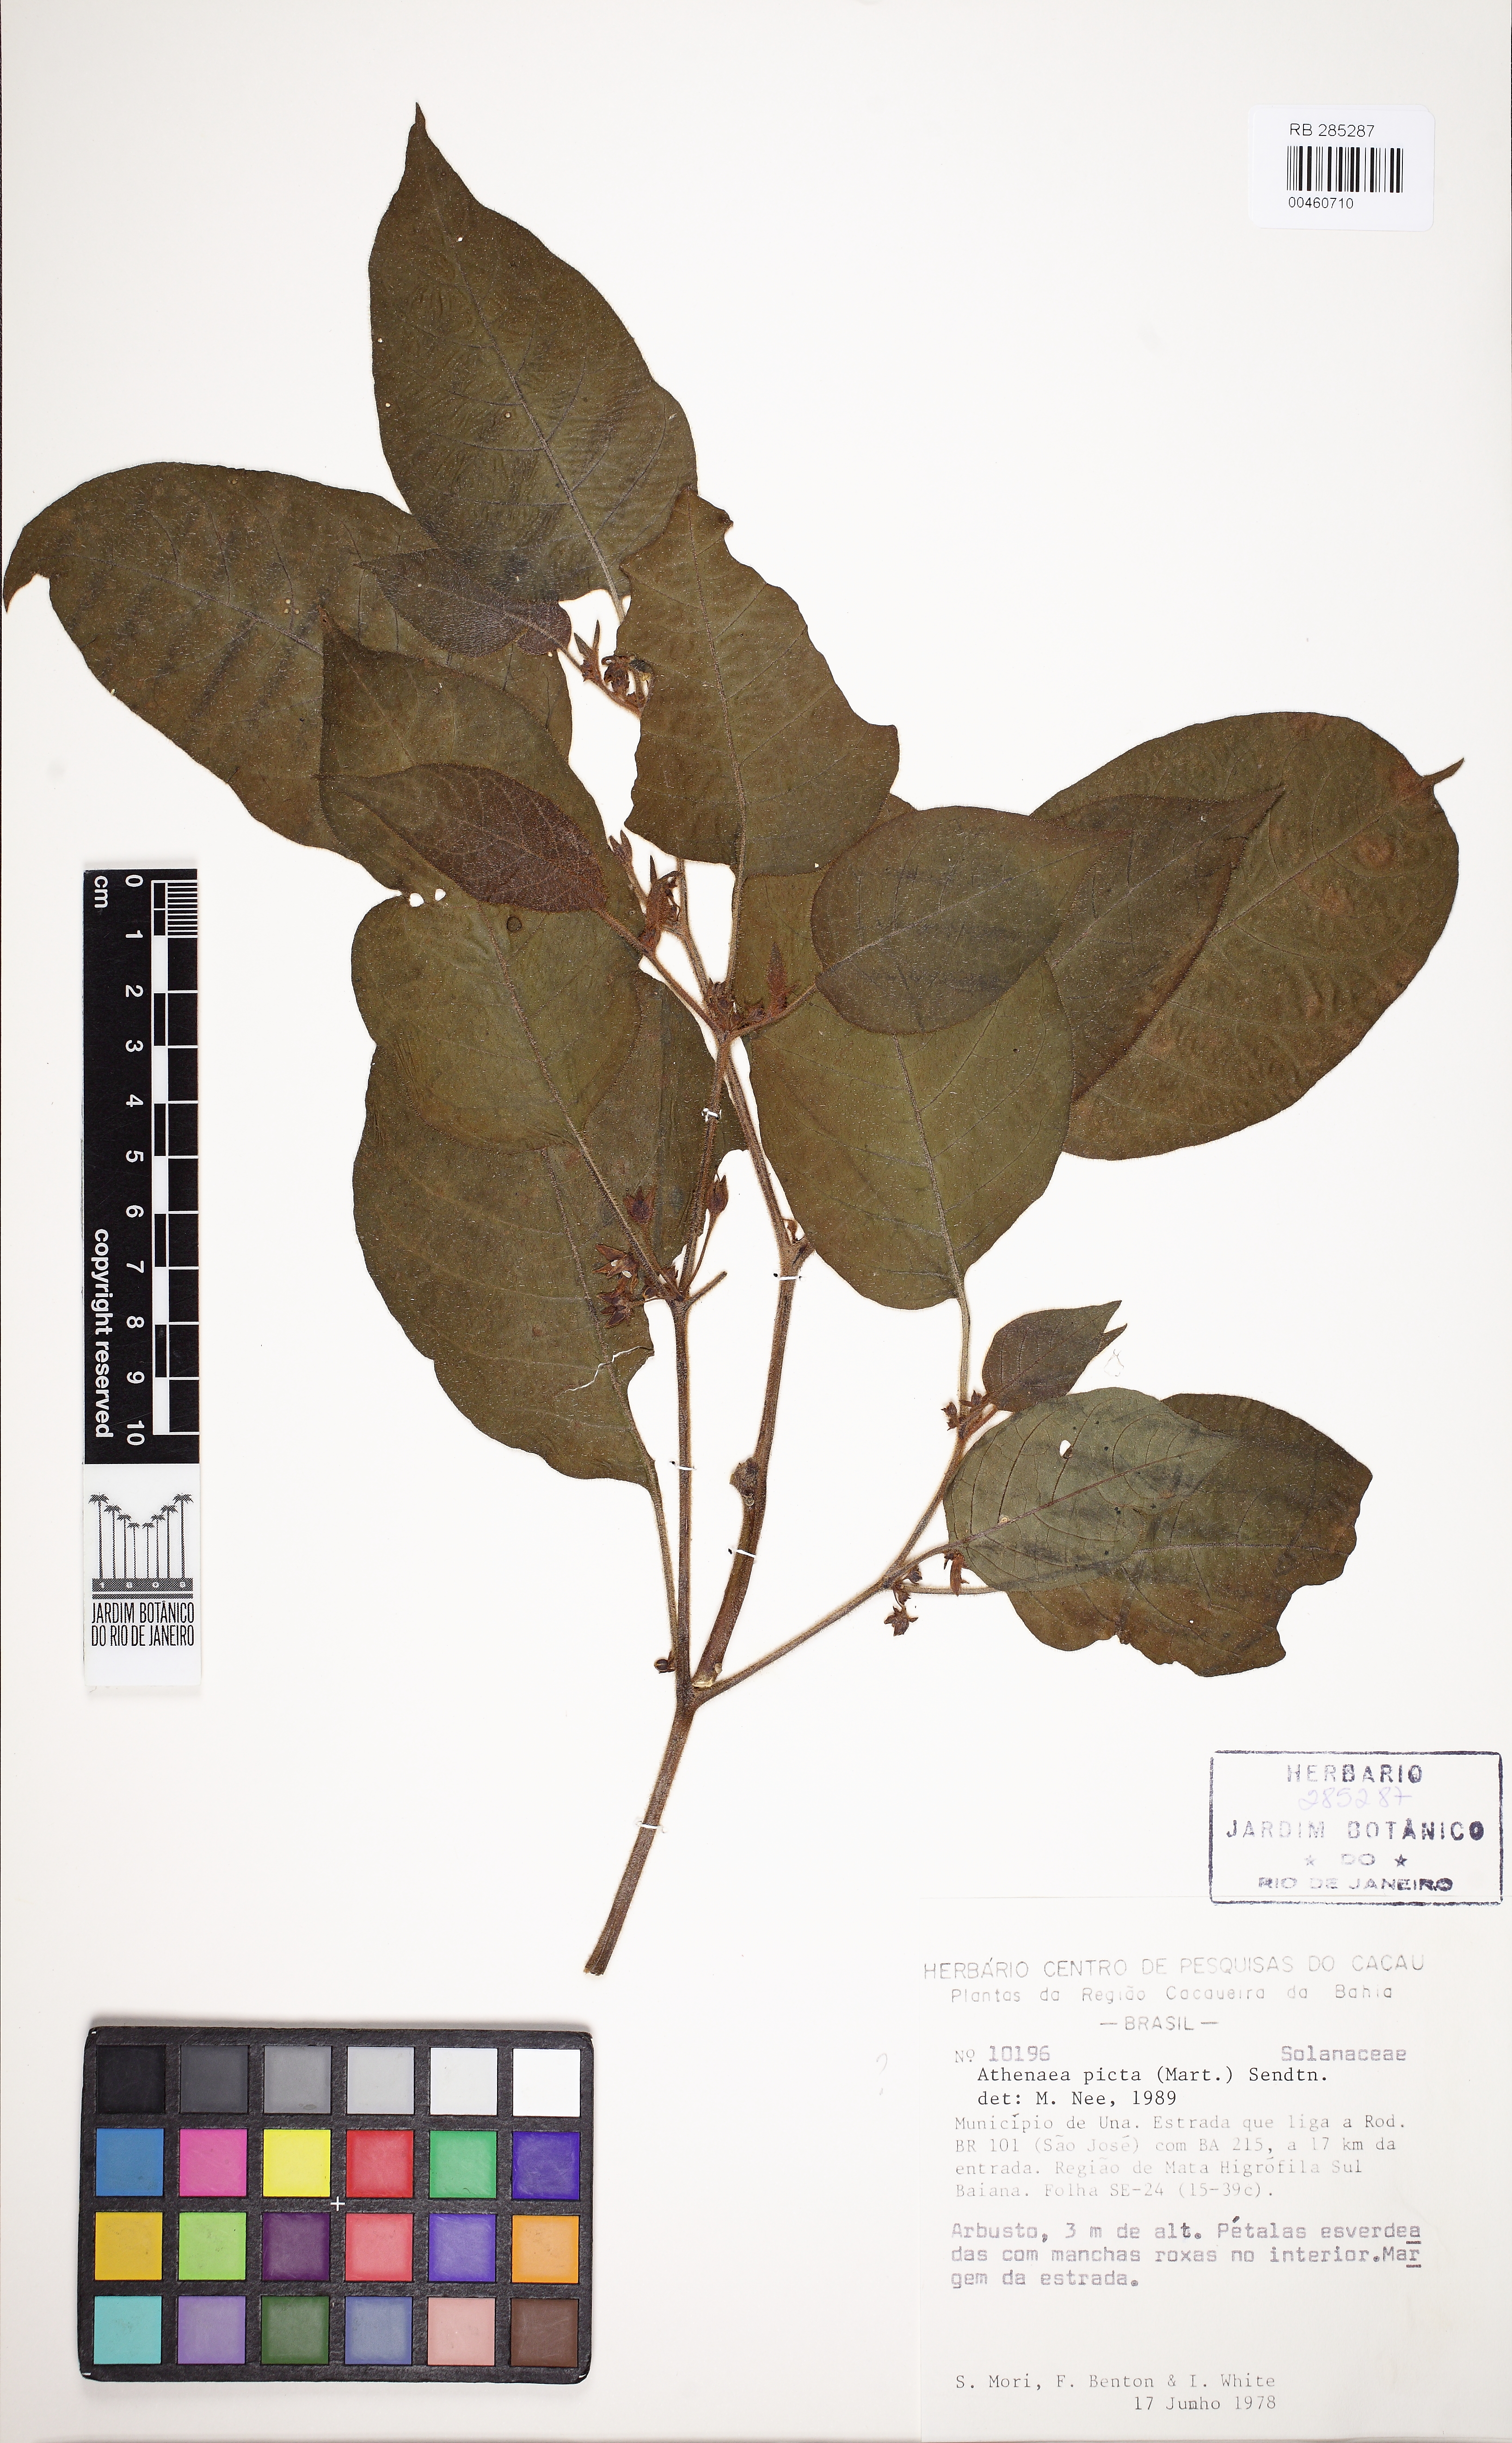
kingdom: Plantae
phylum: Tracheophyta
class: Magnoliopsida
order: Solanales
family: Solanaceae
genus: Athenaea
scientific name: Athenaea picta
